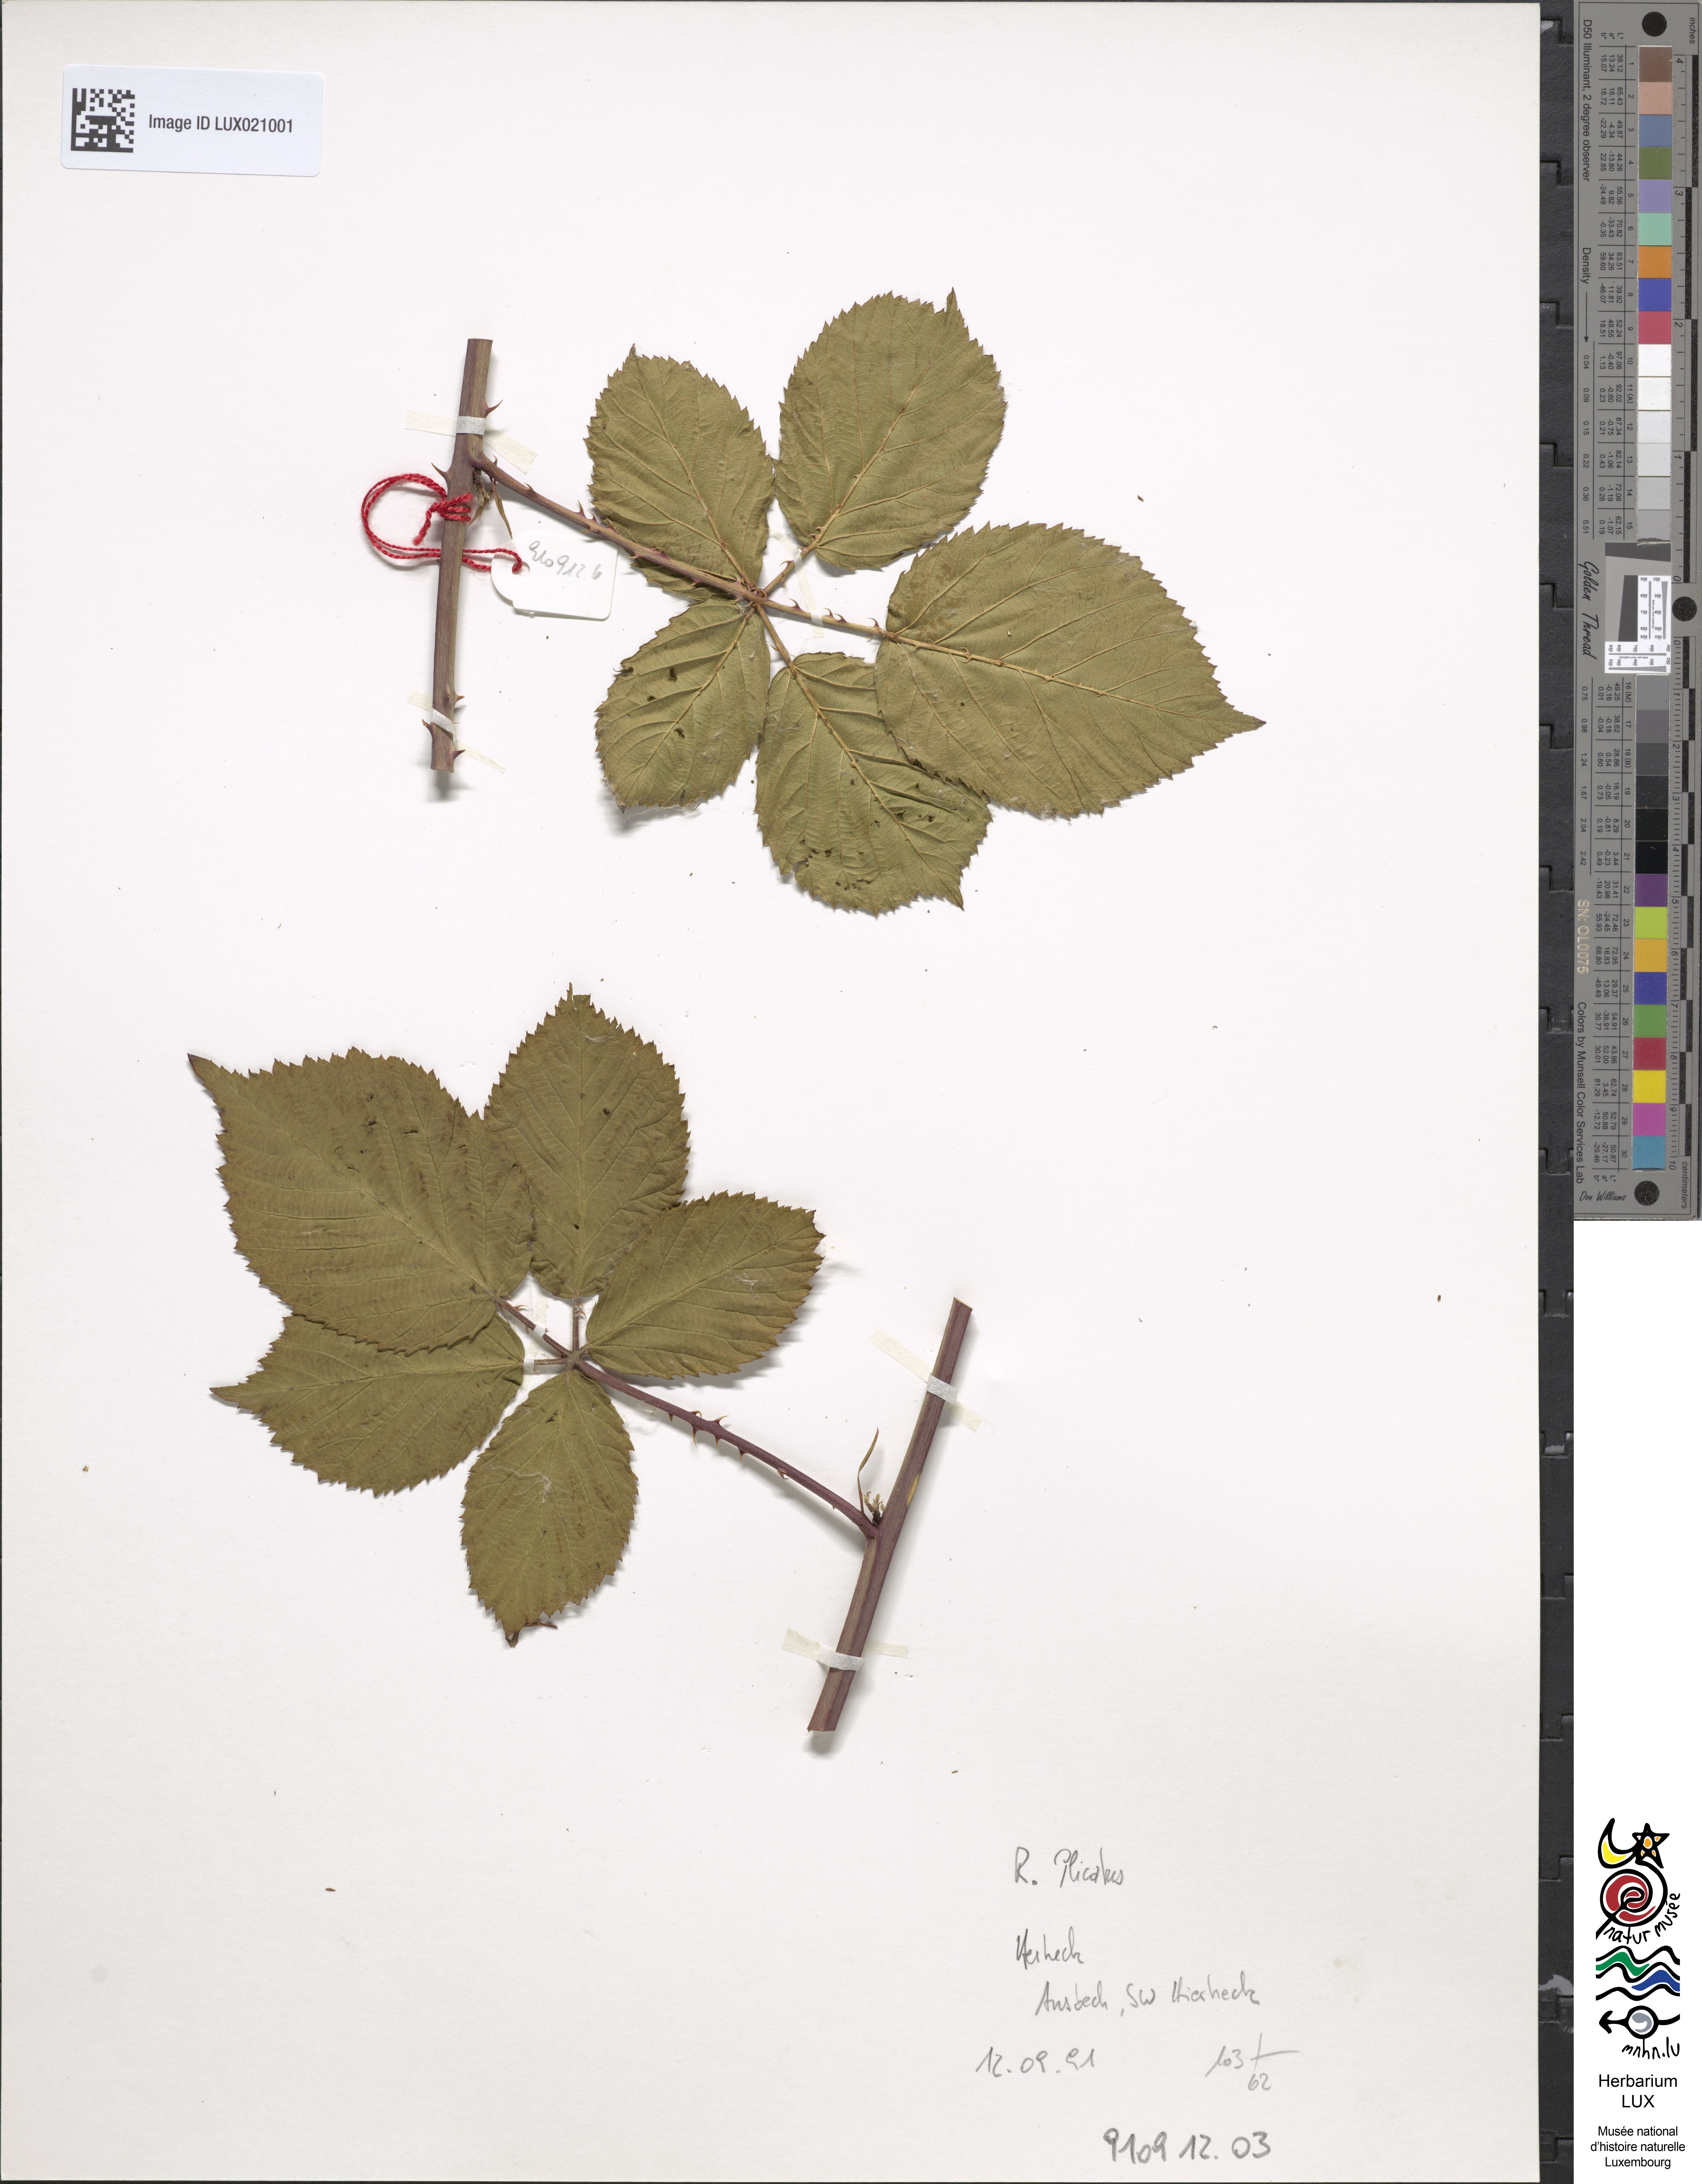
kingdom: Plantae
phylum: Tracheophyta
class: Magnoliopsida
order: Rosales
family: Rosaceae
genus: Rubus
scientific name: Rubus plicatus
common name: Plaited-leaved bramble
